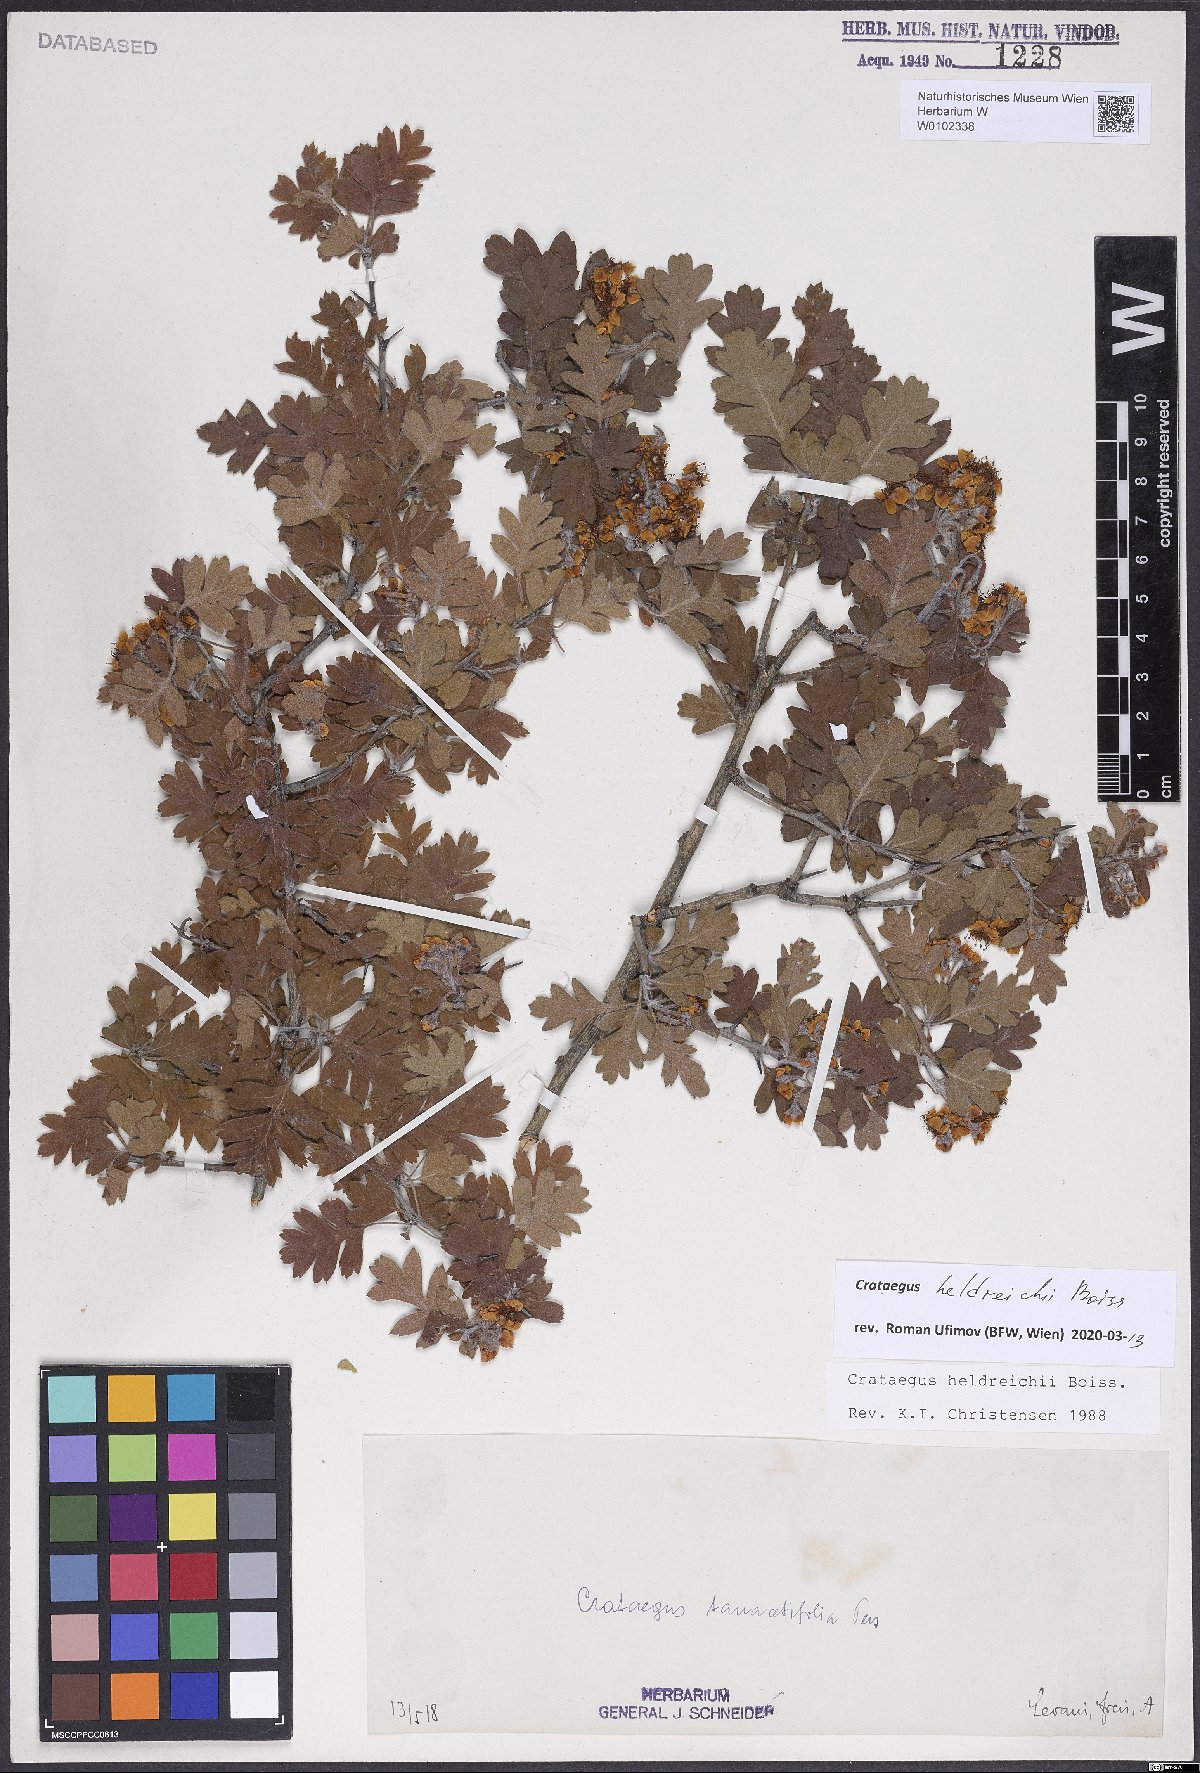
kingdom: Plantae
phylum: Tracheophyta
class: Magnoliopsida
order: Rosales
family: Rosaceae
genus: Crataegus
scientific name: Crataegus heldreichii
